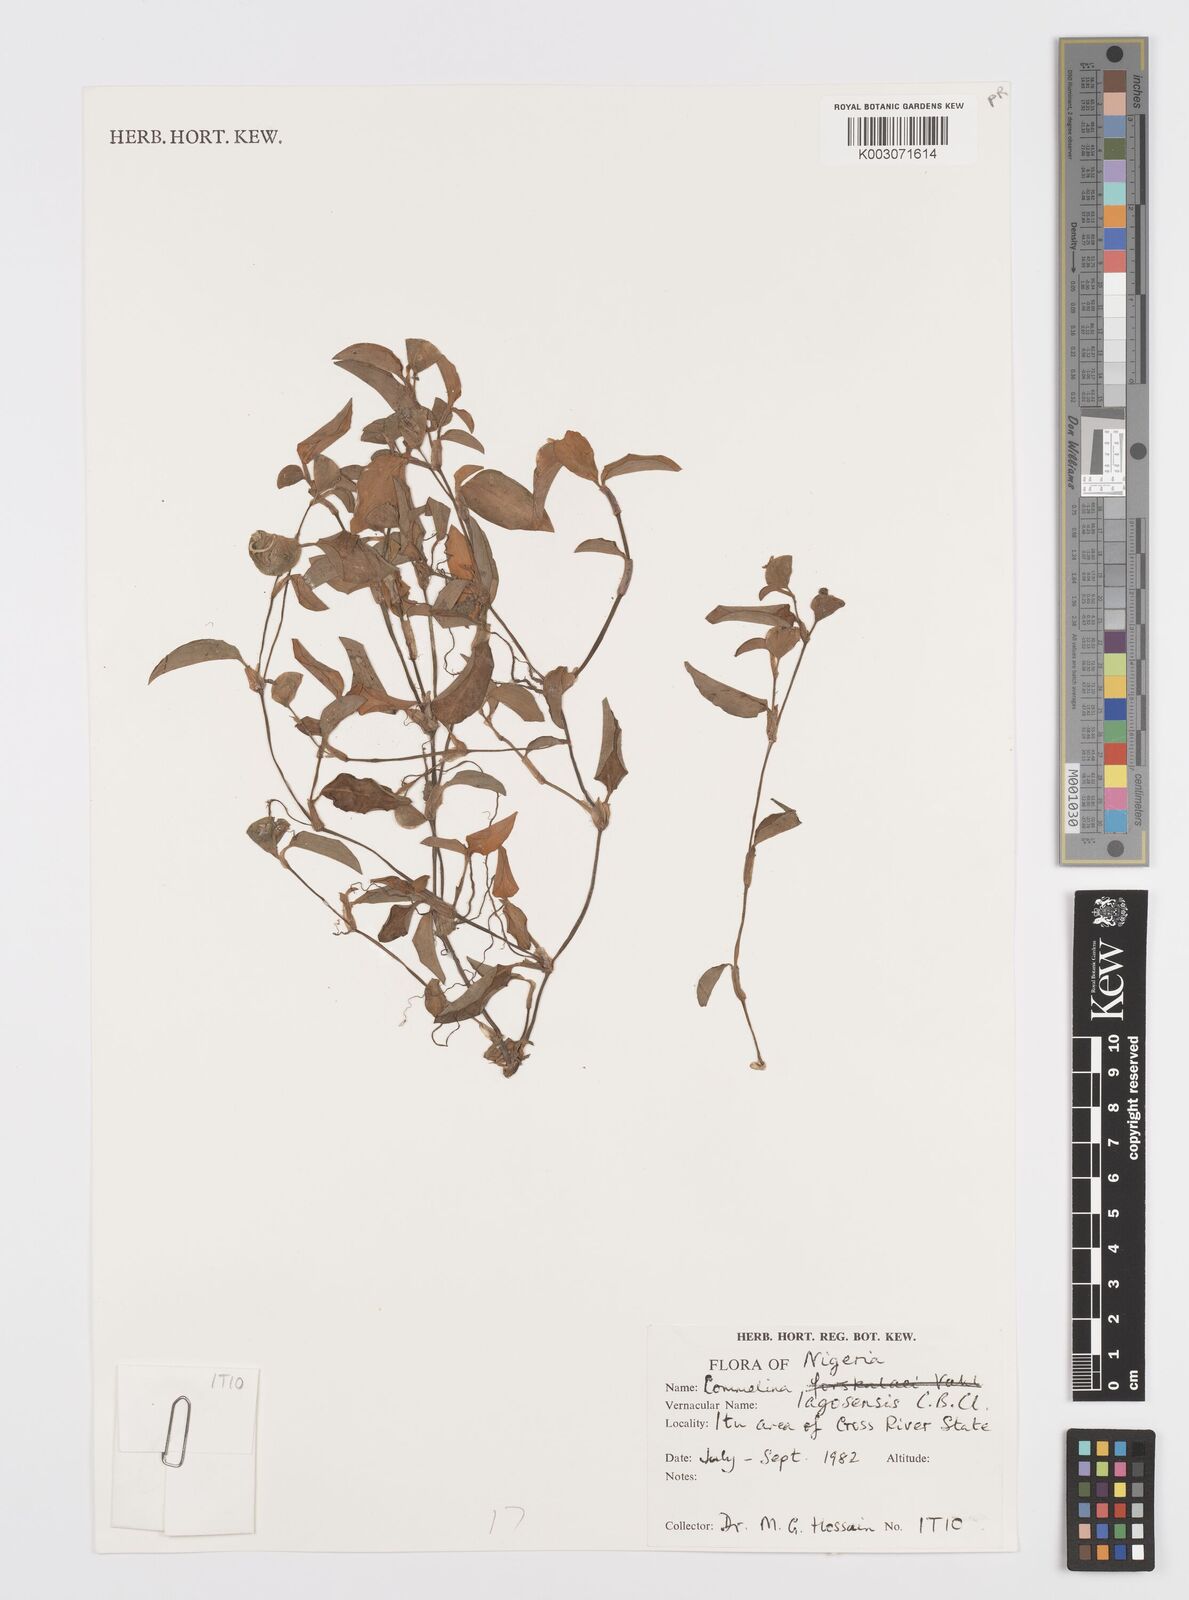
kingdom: Plantae
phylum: Tracheophyta
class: Liliopsida
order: Commelinales
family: Commelinaceae
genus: Commelina
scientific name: Commelina bracteosa
